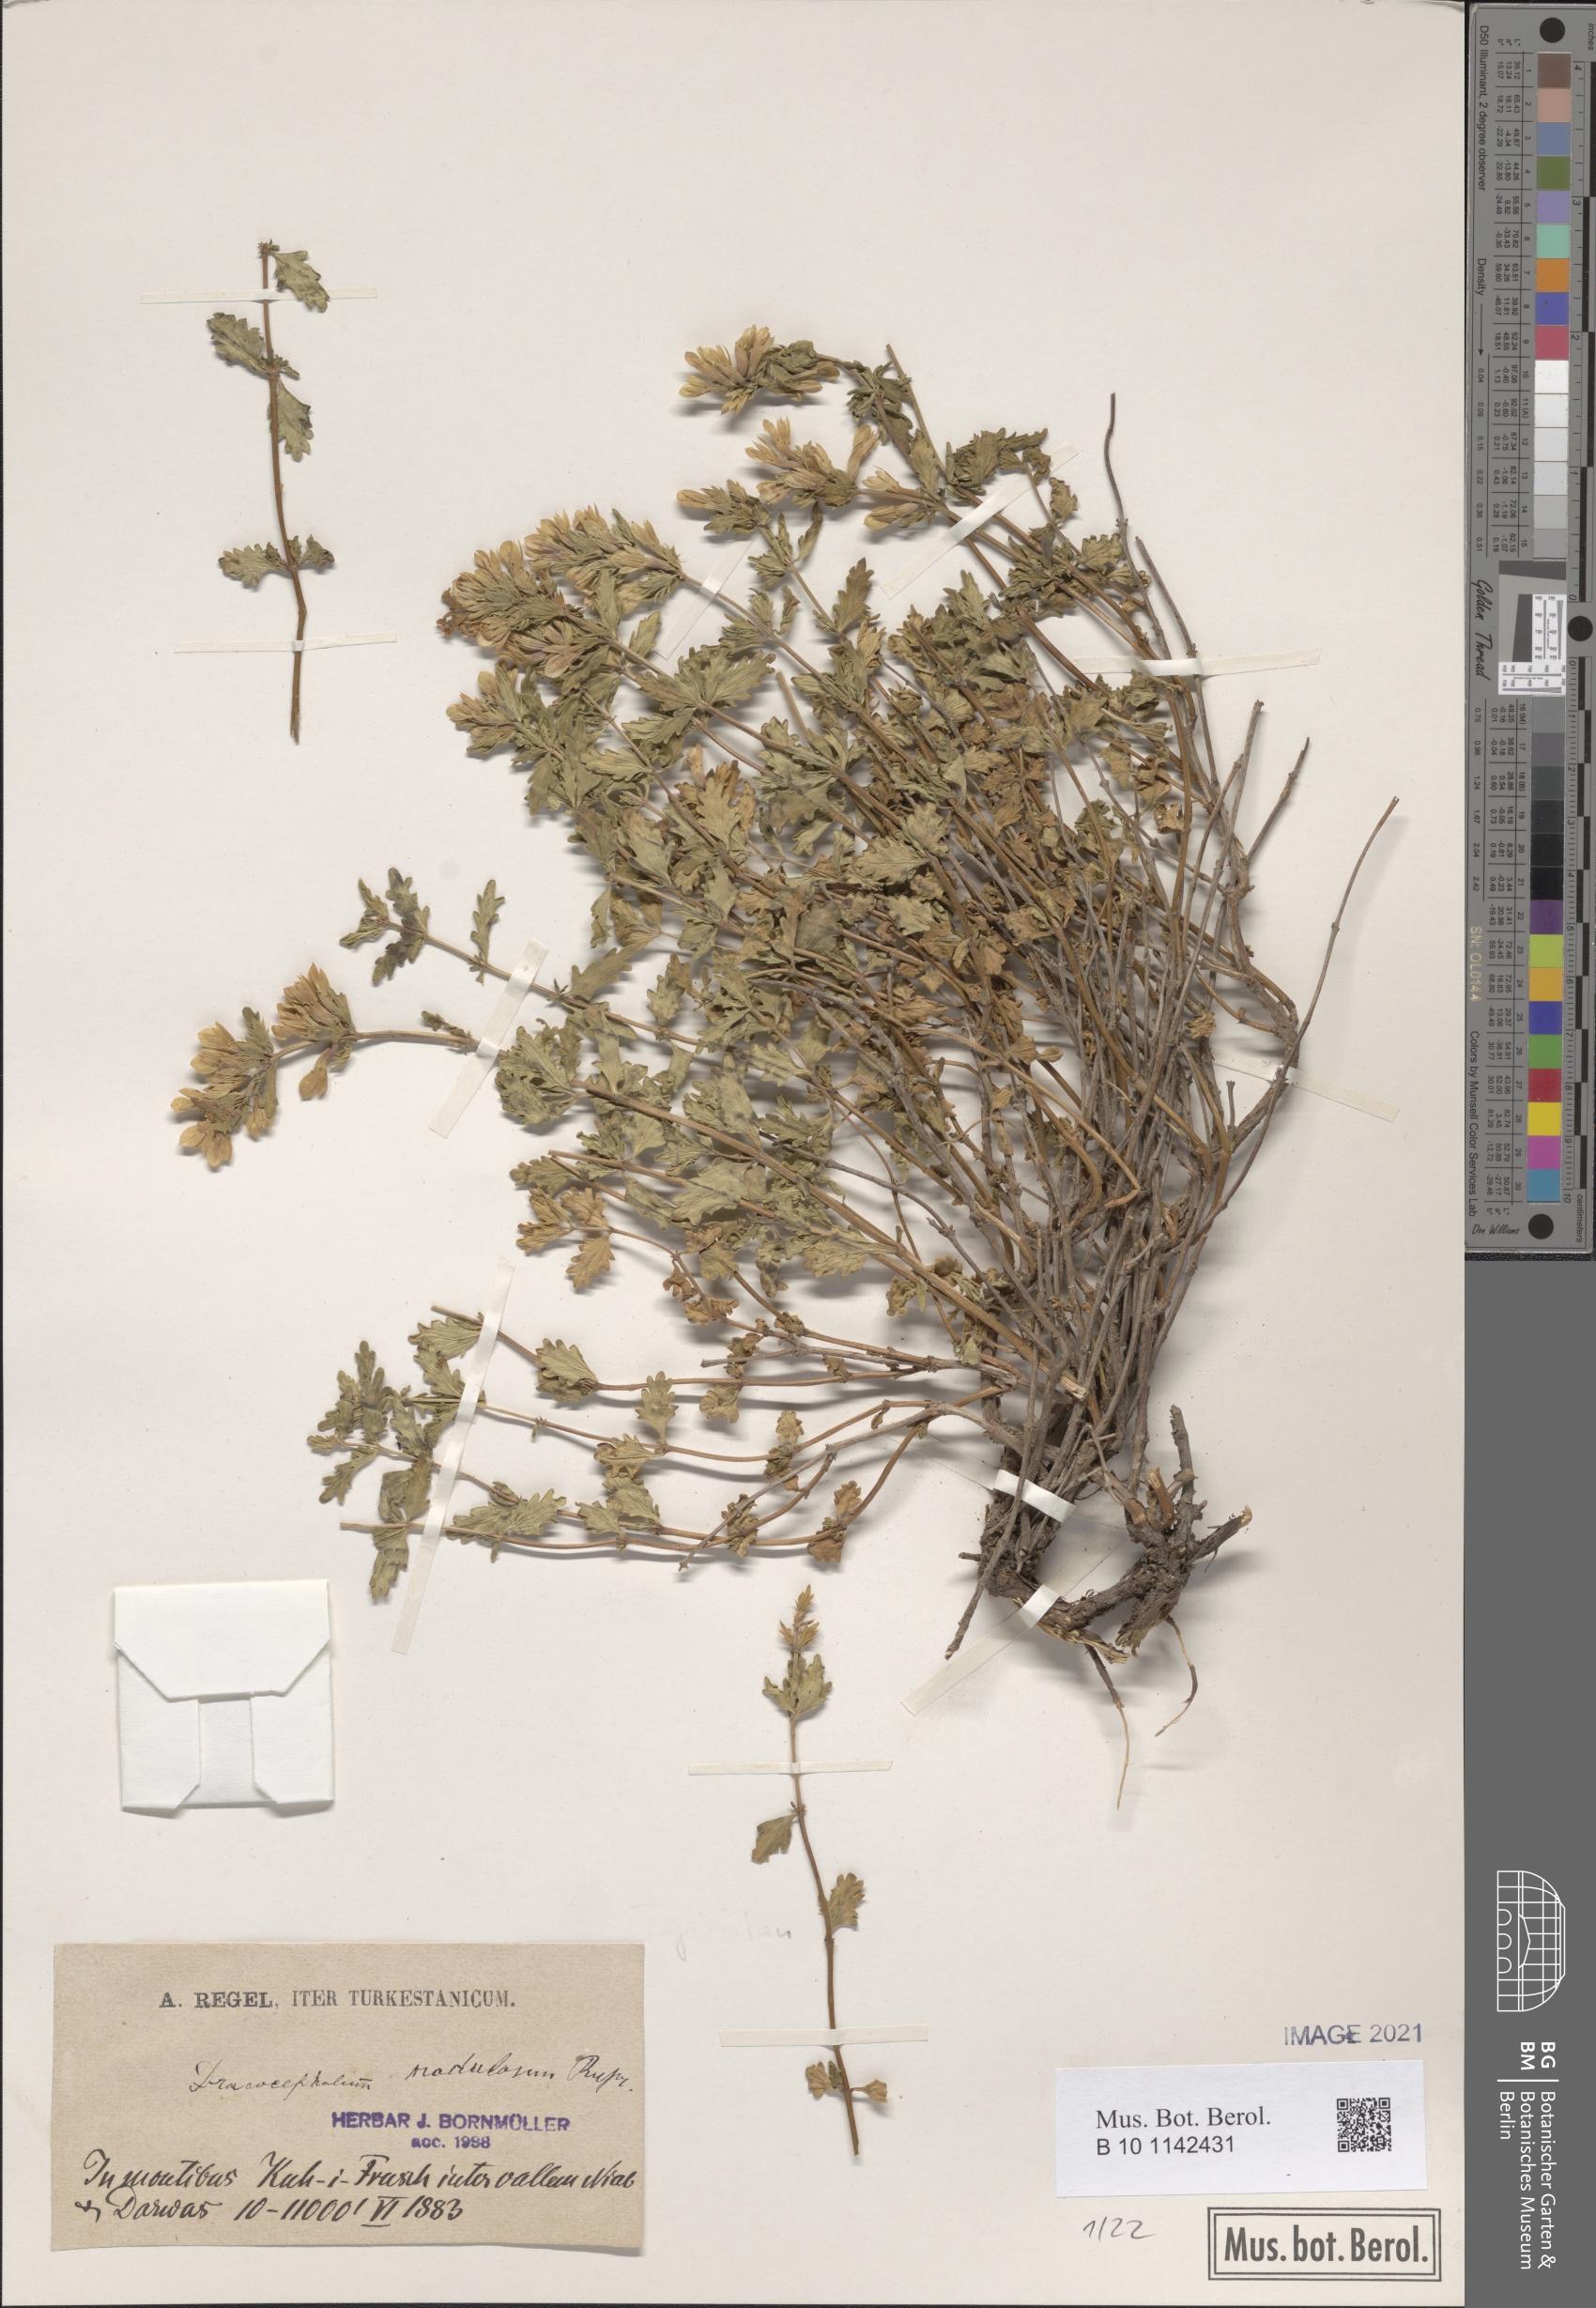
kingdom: Plantae
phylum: Tracheophyta
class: Magnoliopsida
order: Lamiales
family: Lamiaceae
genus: Dracocephalum
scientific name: Dracocephalum nodulosum
